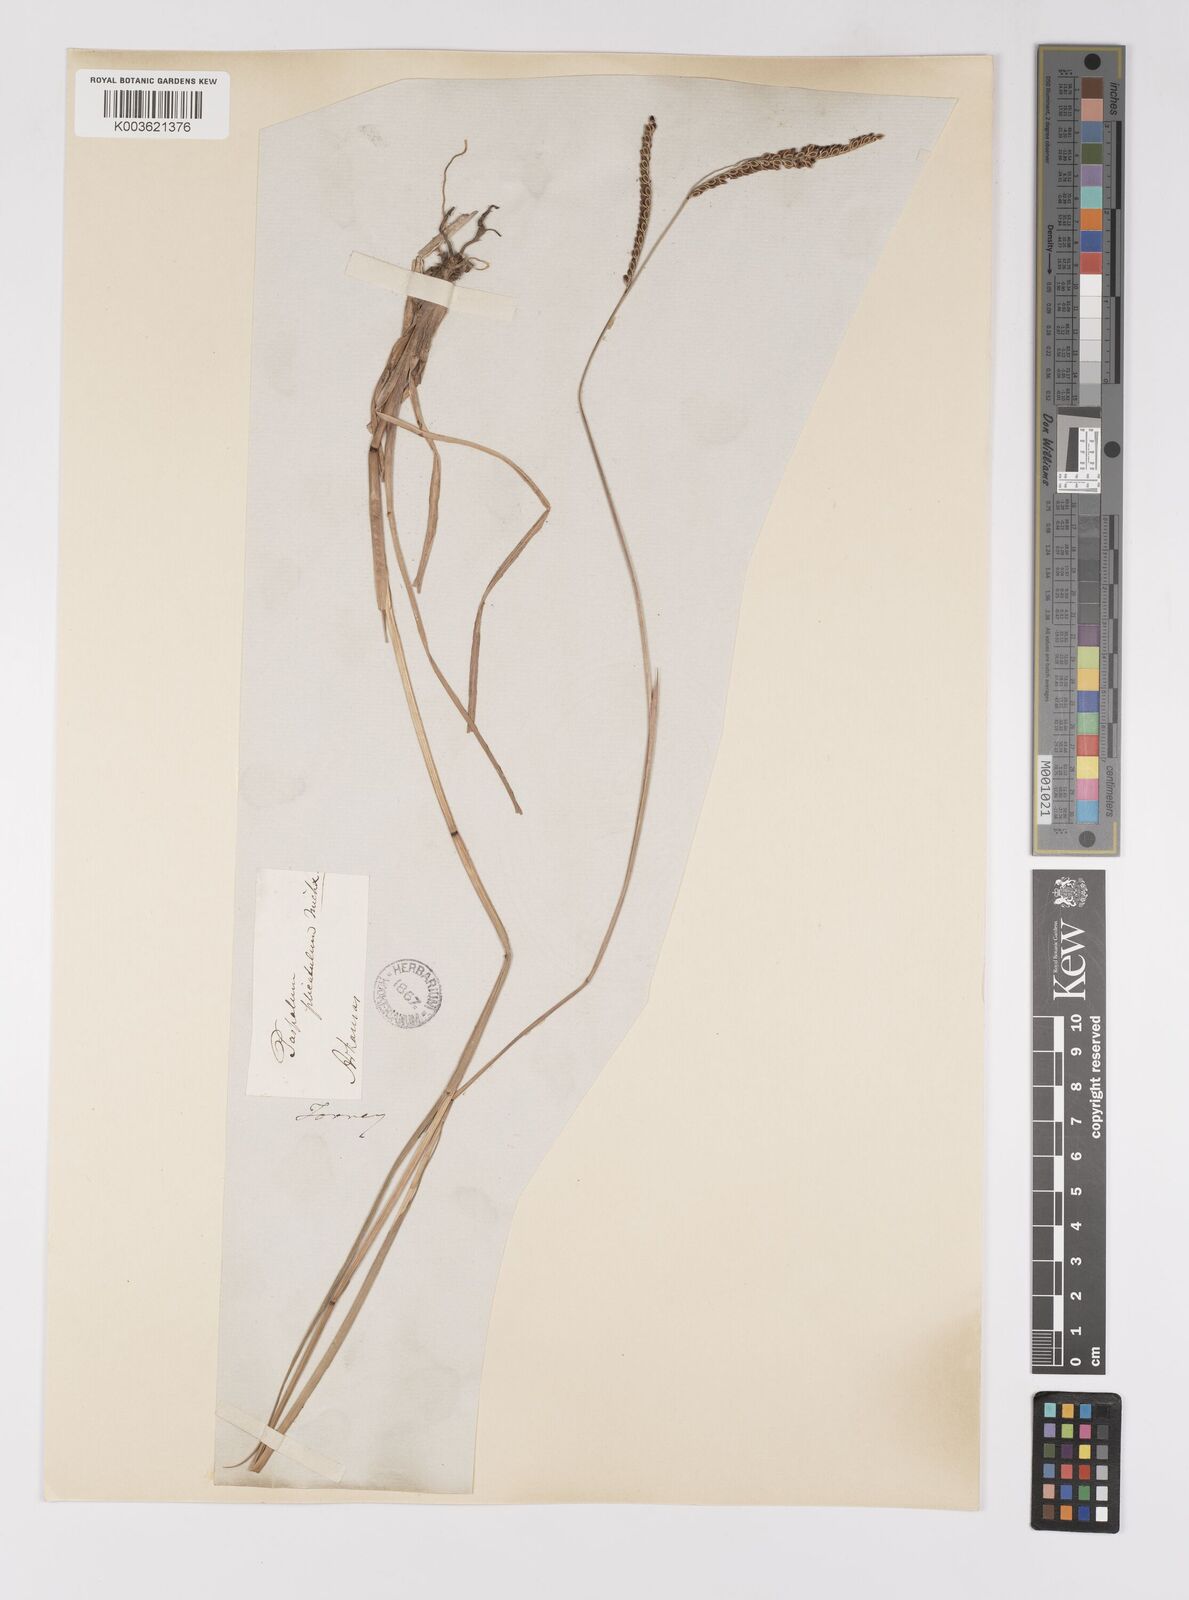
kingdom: Plantae
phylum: Tracheophyta
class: Liliopsida
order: Poales
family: Poaceae
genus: Paspalum
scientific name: Paspalum plicatulum
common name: Top paspalum
